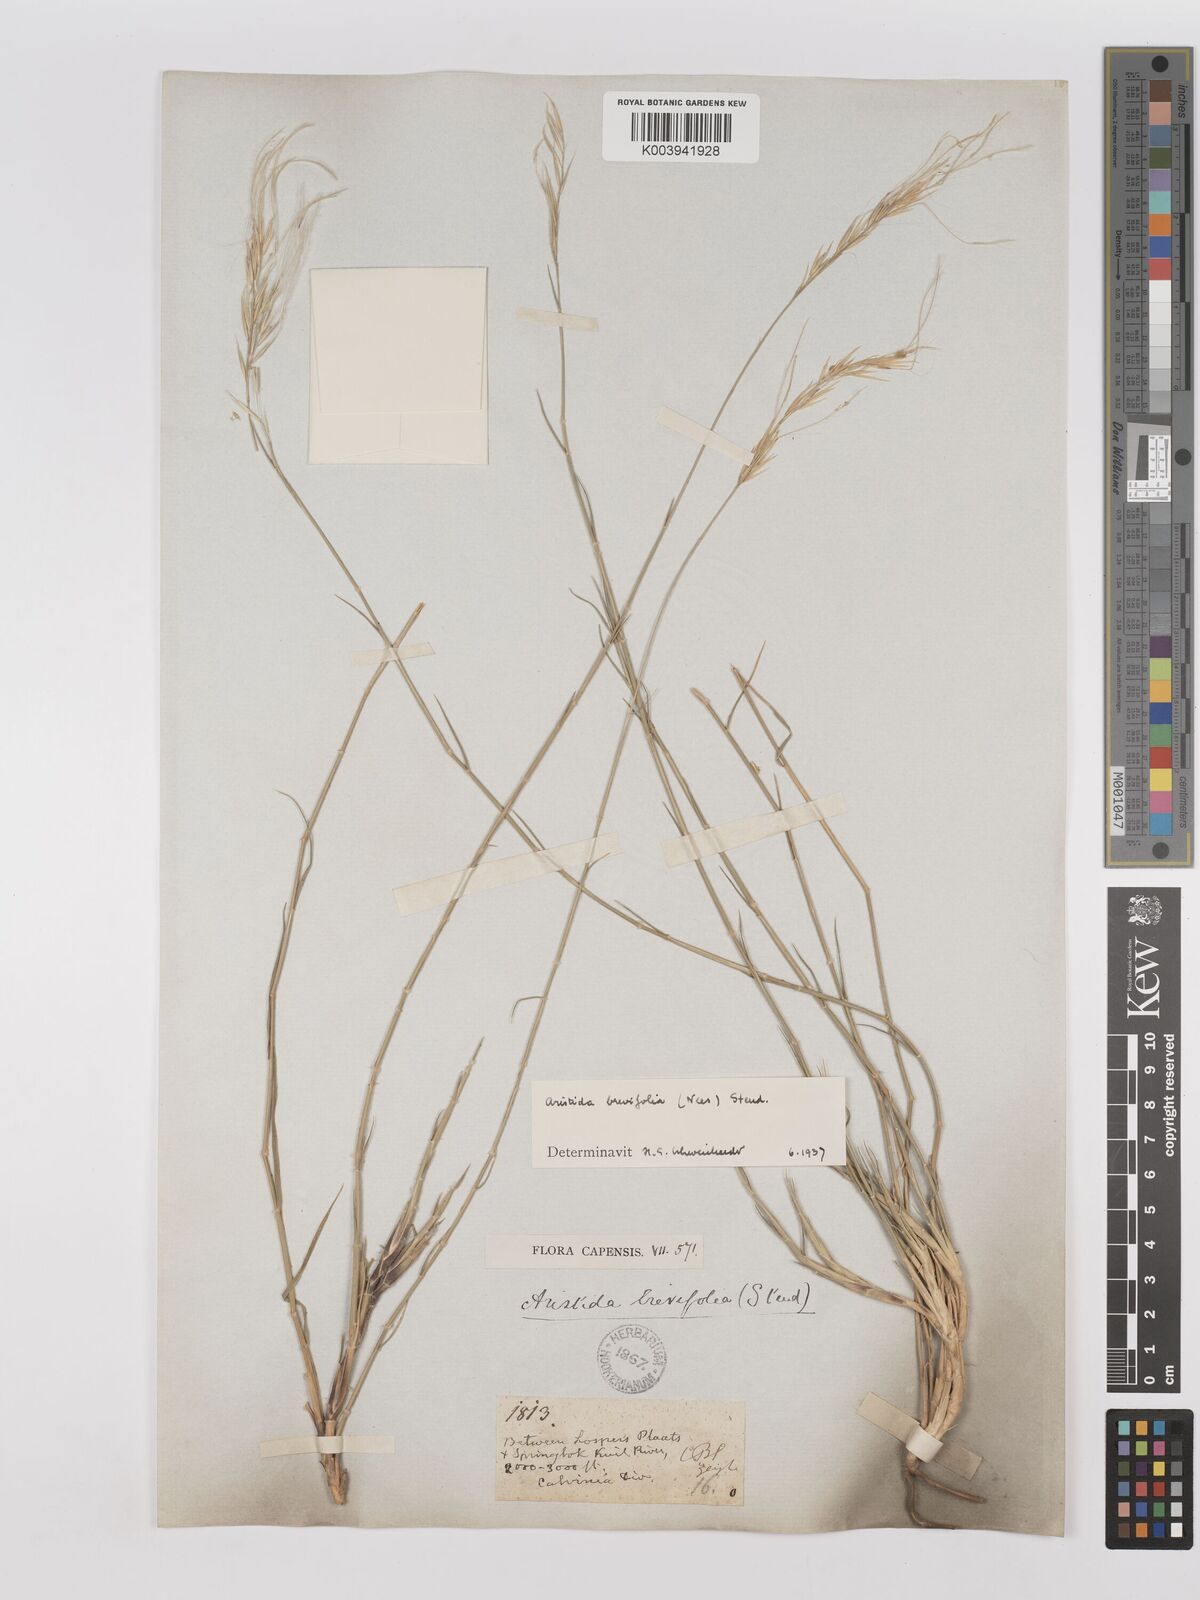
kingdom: Plantae
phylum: Tracheophyta
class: Liliopsida
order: Poales
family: Poaceae
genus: Stipagrostis
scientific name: Stipagrostis brevifolia
